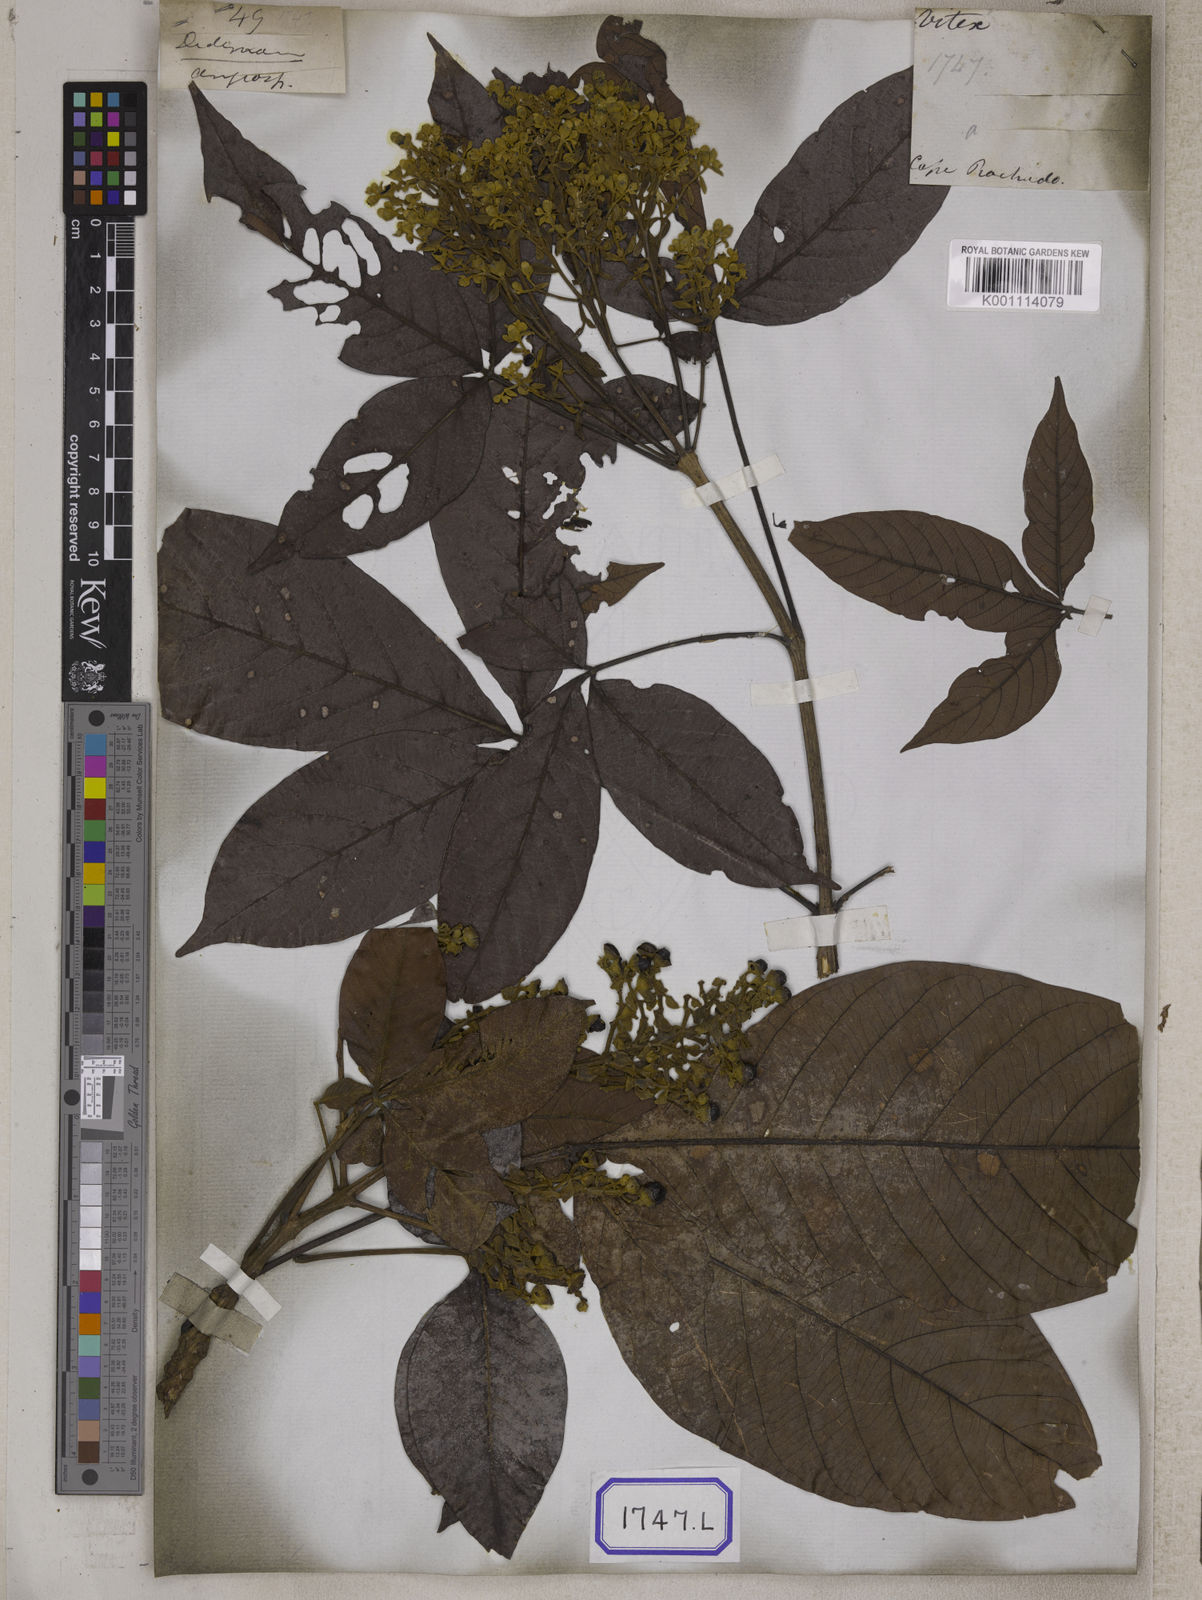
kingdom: Plantae
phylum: Tracheophyta
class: Magnoliopsida
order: Lamiales
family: Lamiaceae
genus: Vitex
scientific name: Vitex pinnata
